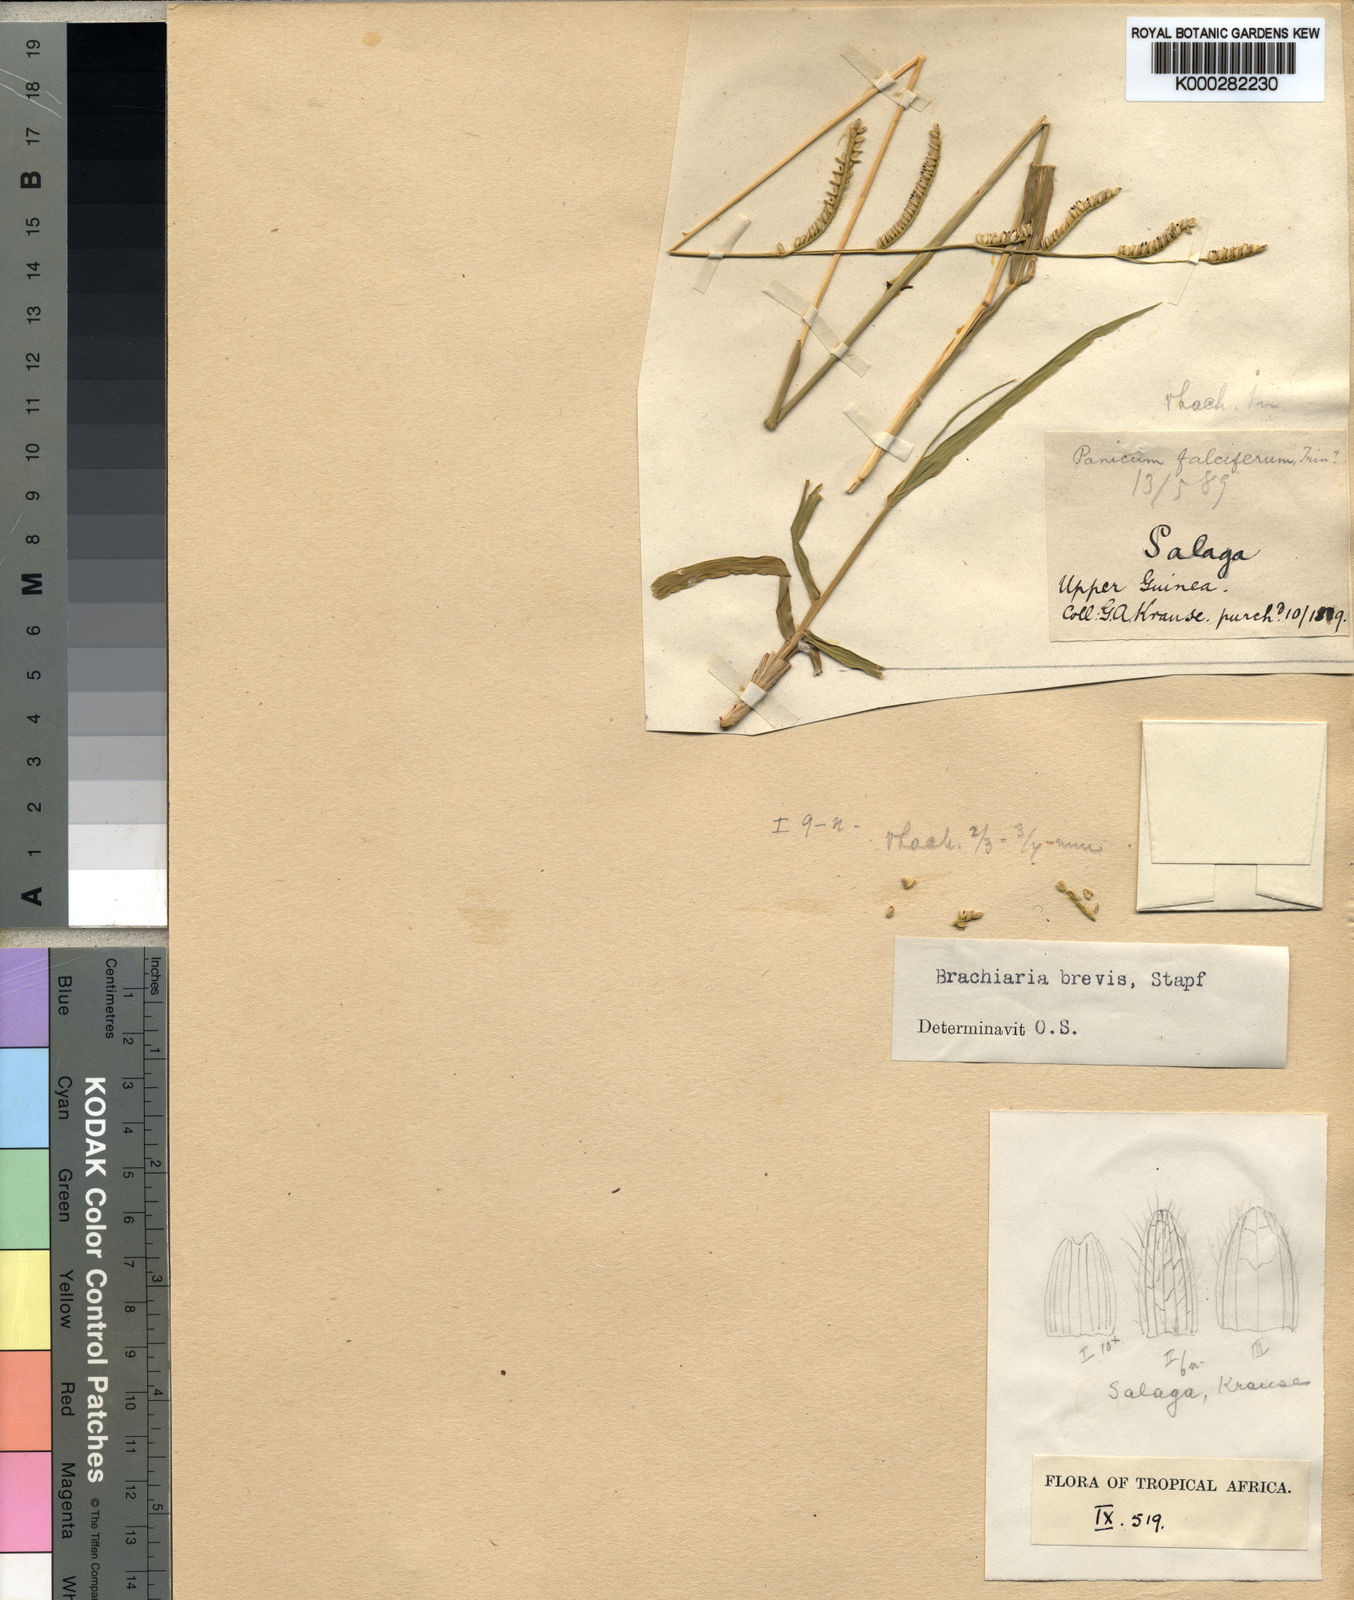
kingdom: Plantae
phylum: Tracheophyta
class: Liliopsida
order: Poales
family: Poaceae
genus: Urochloa
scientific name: Urochloa jubata
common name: Buffalograss
